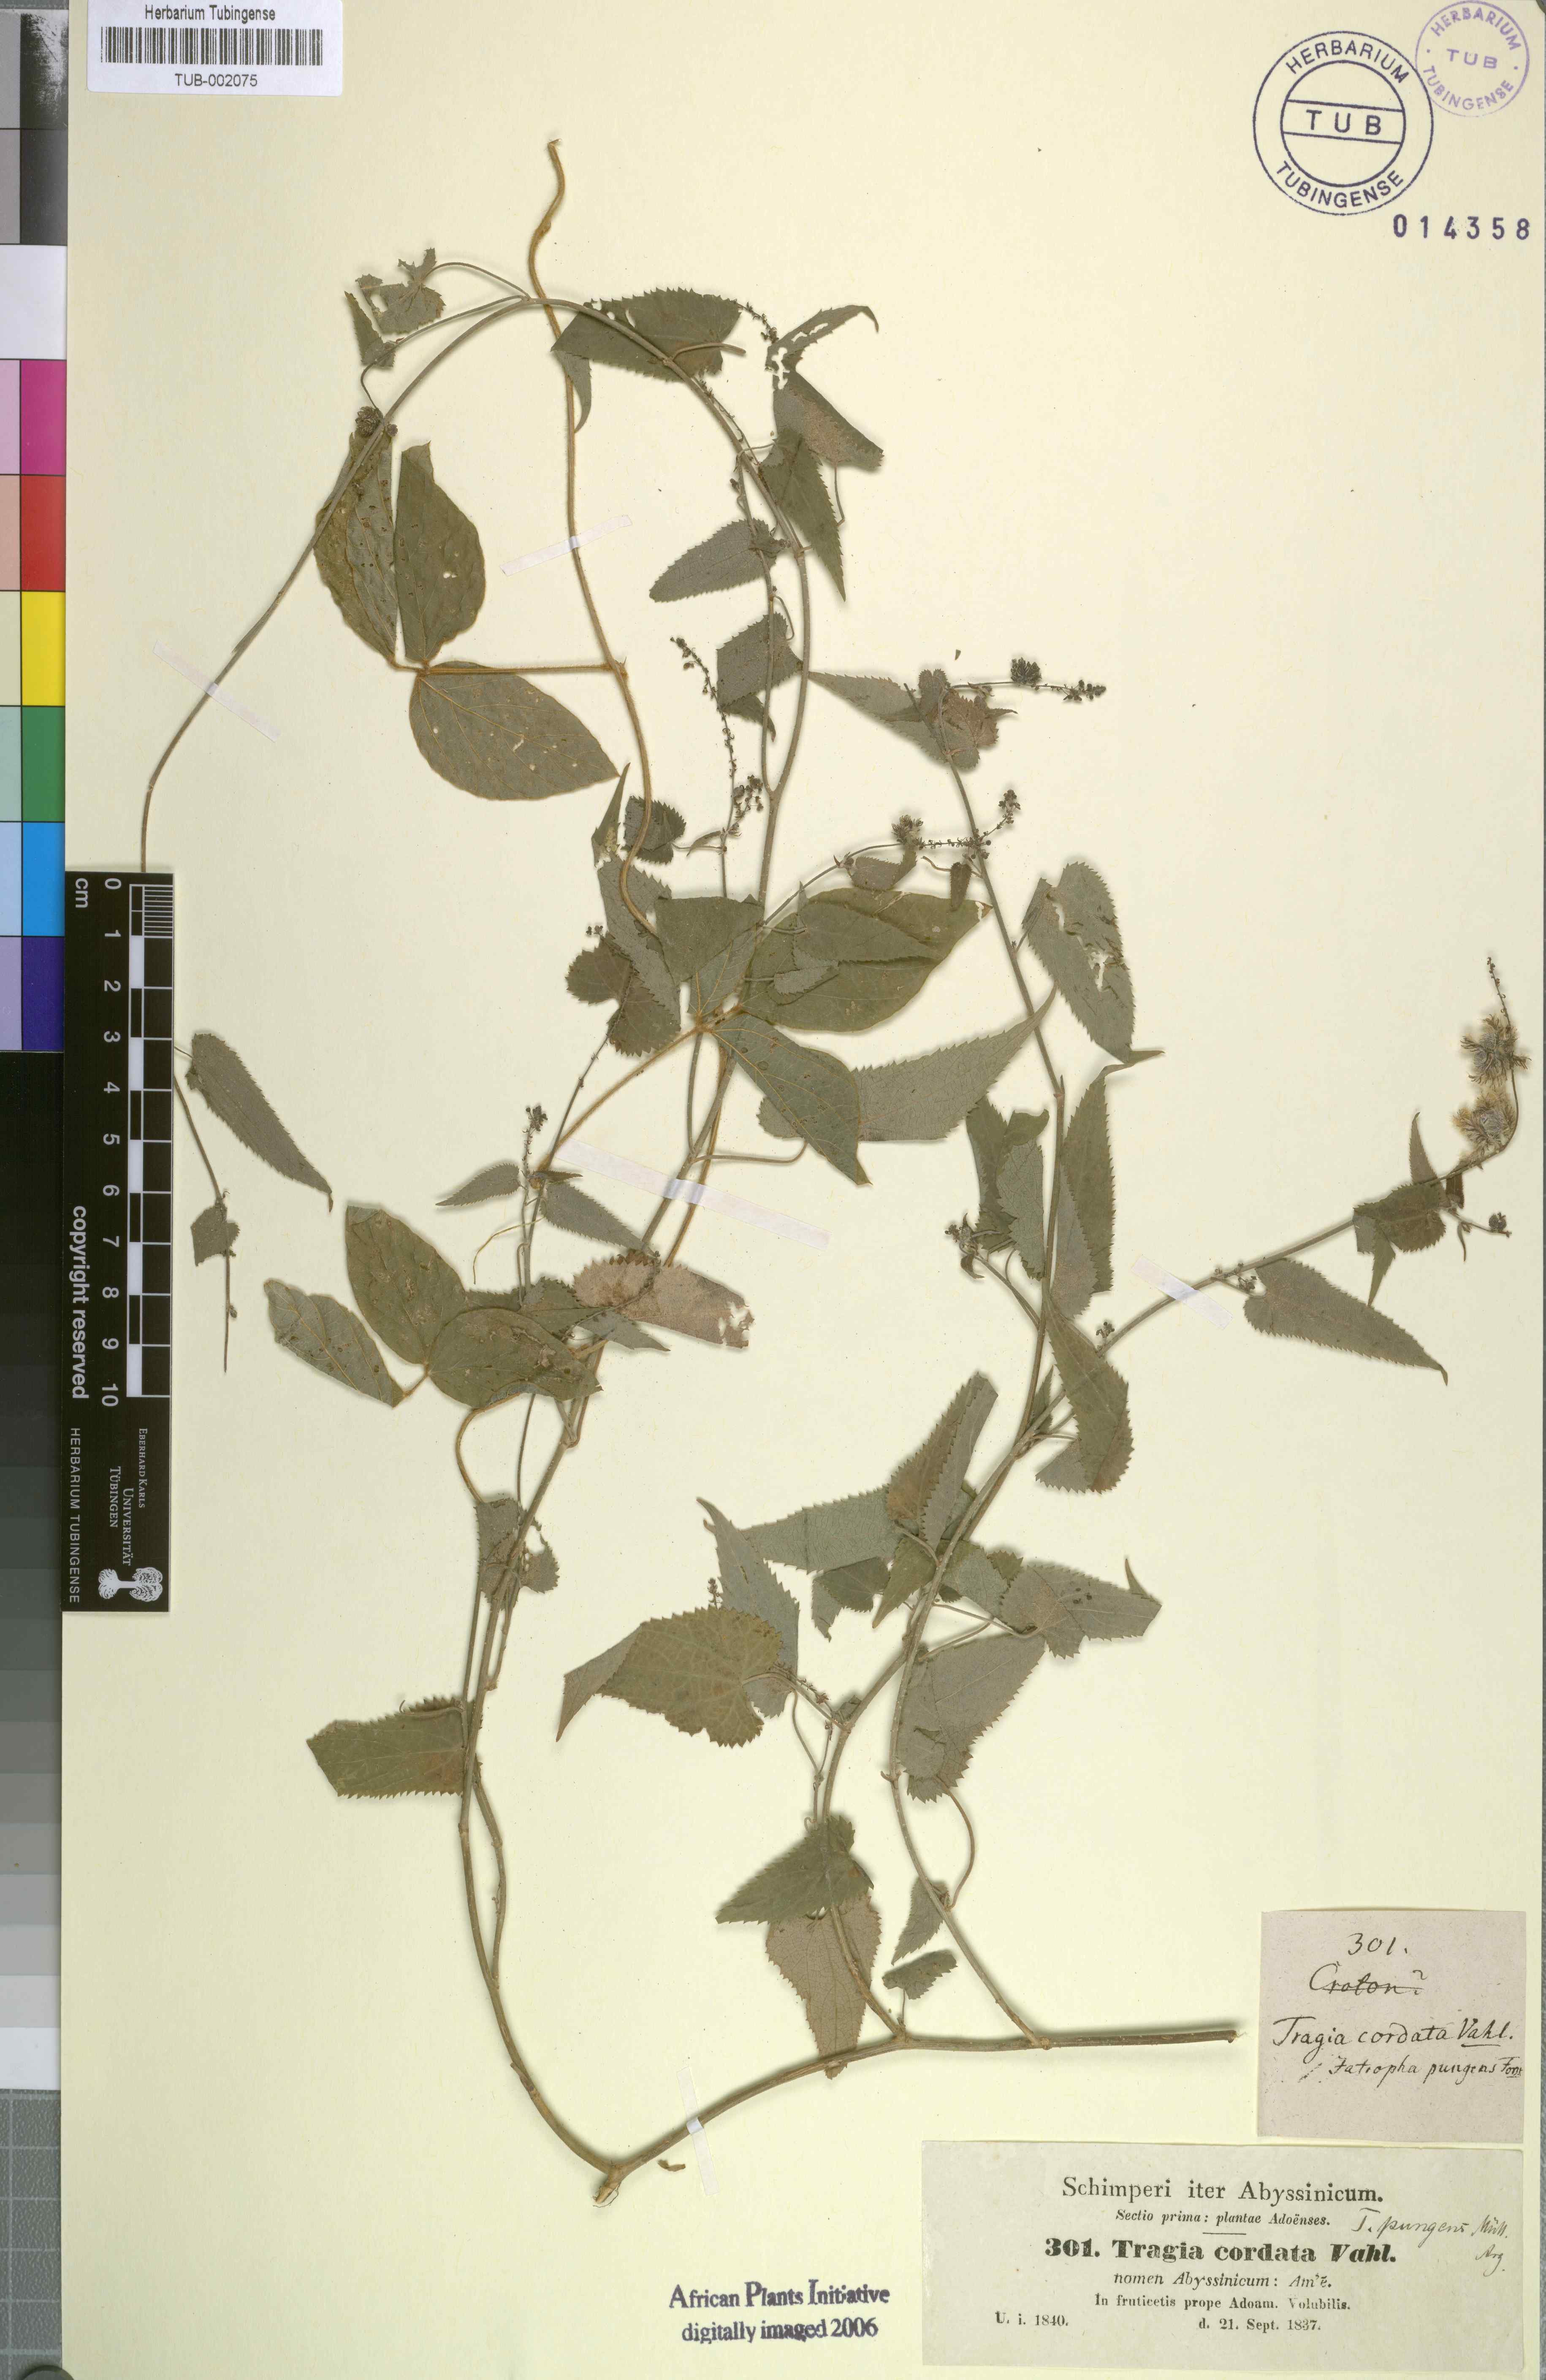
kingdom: Plantae
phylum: Tracheophyta
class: Magnoliopsida
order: Malpighiales
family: Euphorbiaceae
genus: Tragia
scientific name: Tragia pungens
